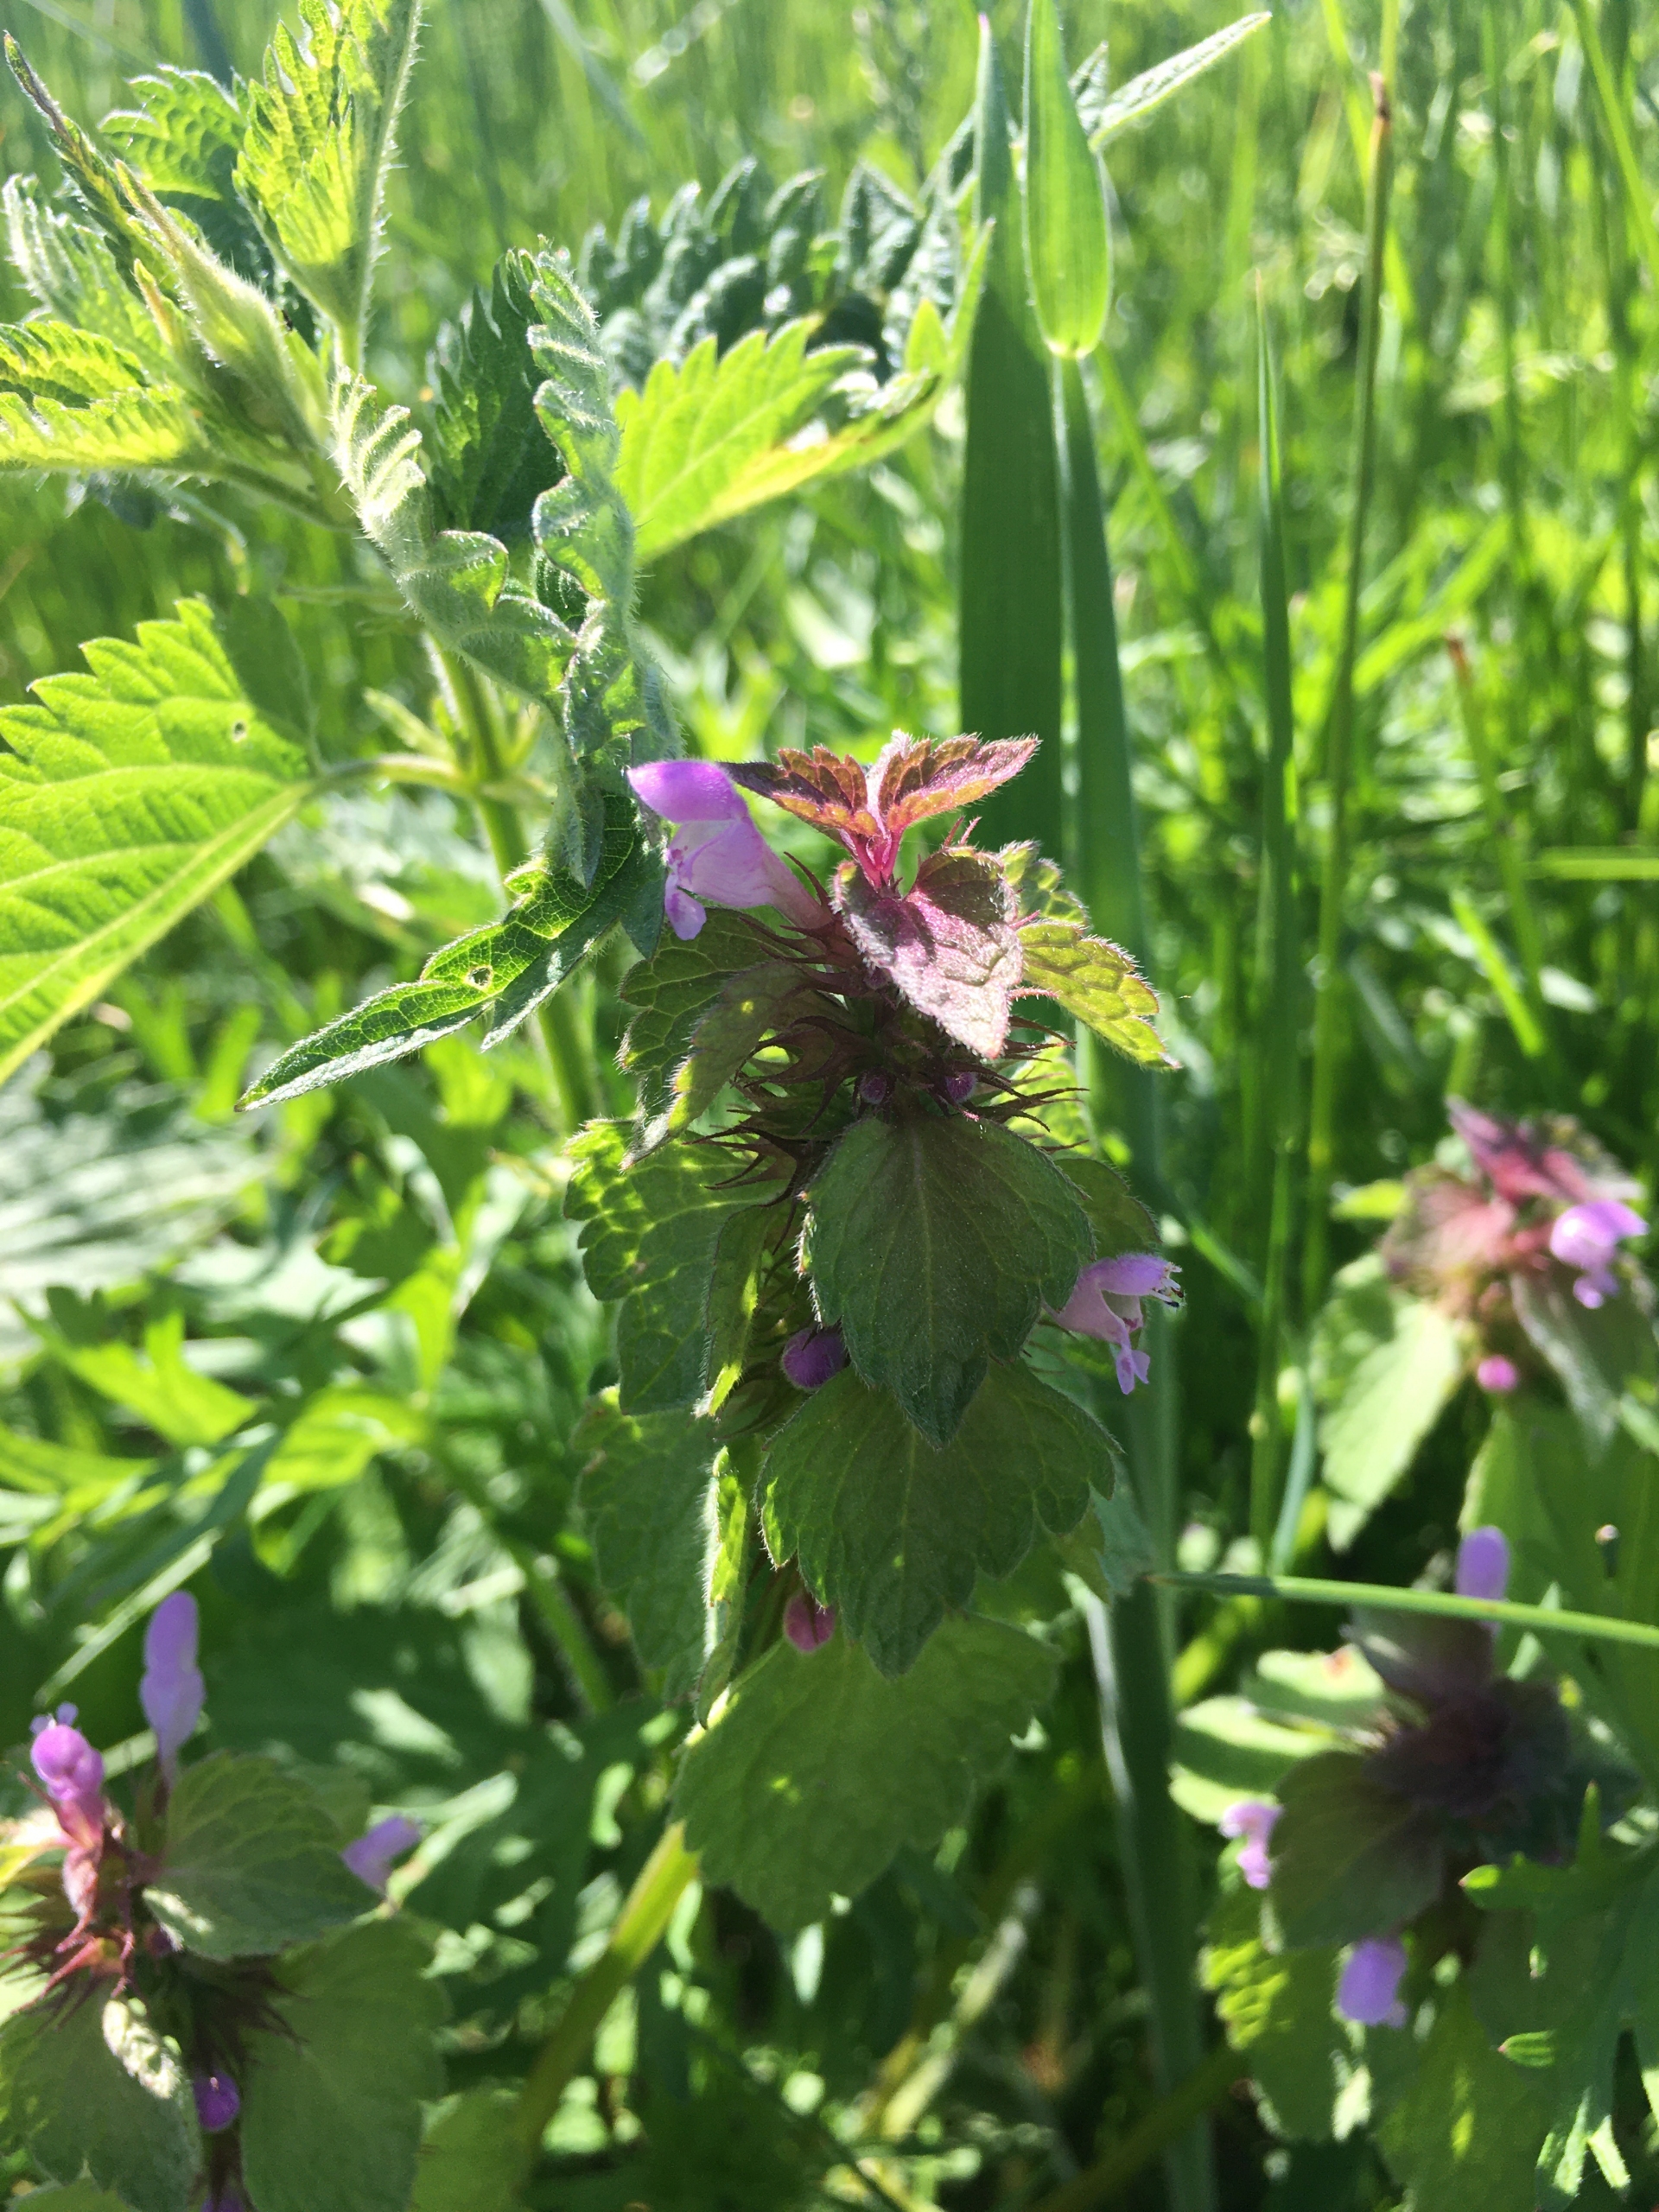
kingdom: Plantae
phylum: Tracheophyta
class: Magnoliopsida
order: Lamiales
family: Lamiaceae
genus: Lamium
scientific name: Lamium purpureum
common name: Rød tvetand
